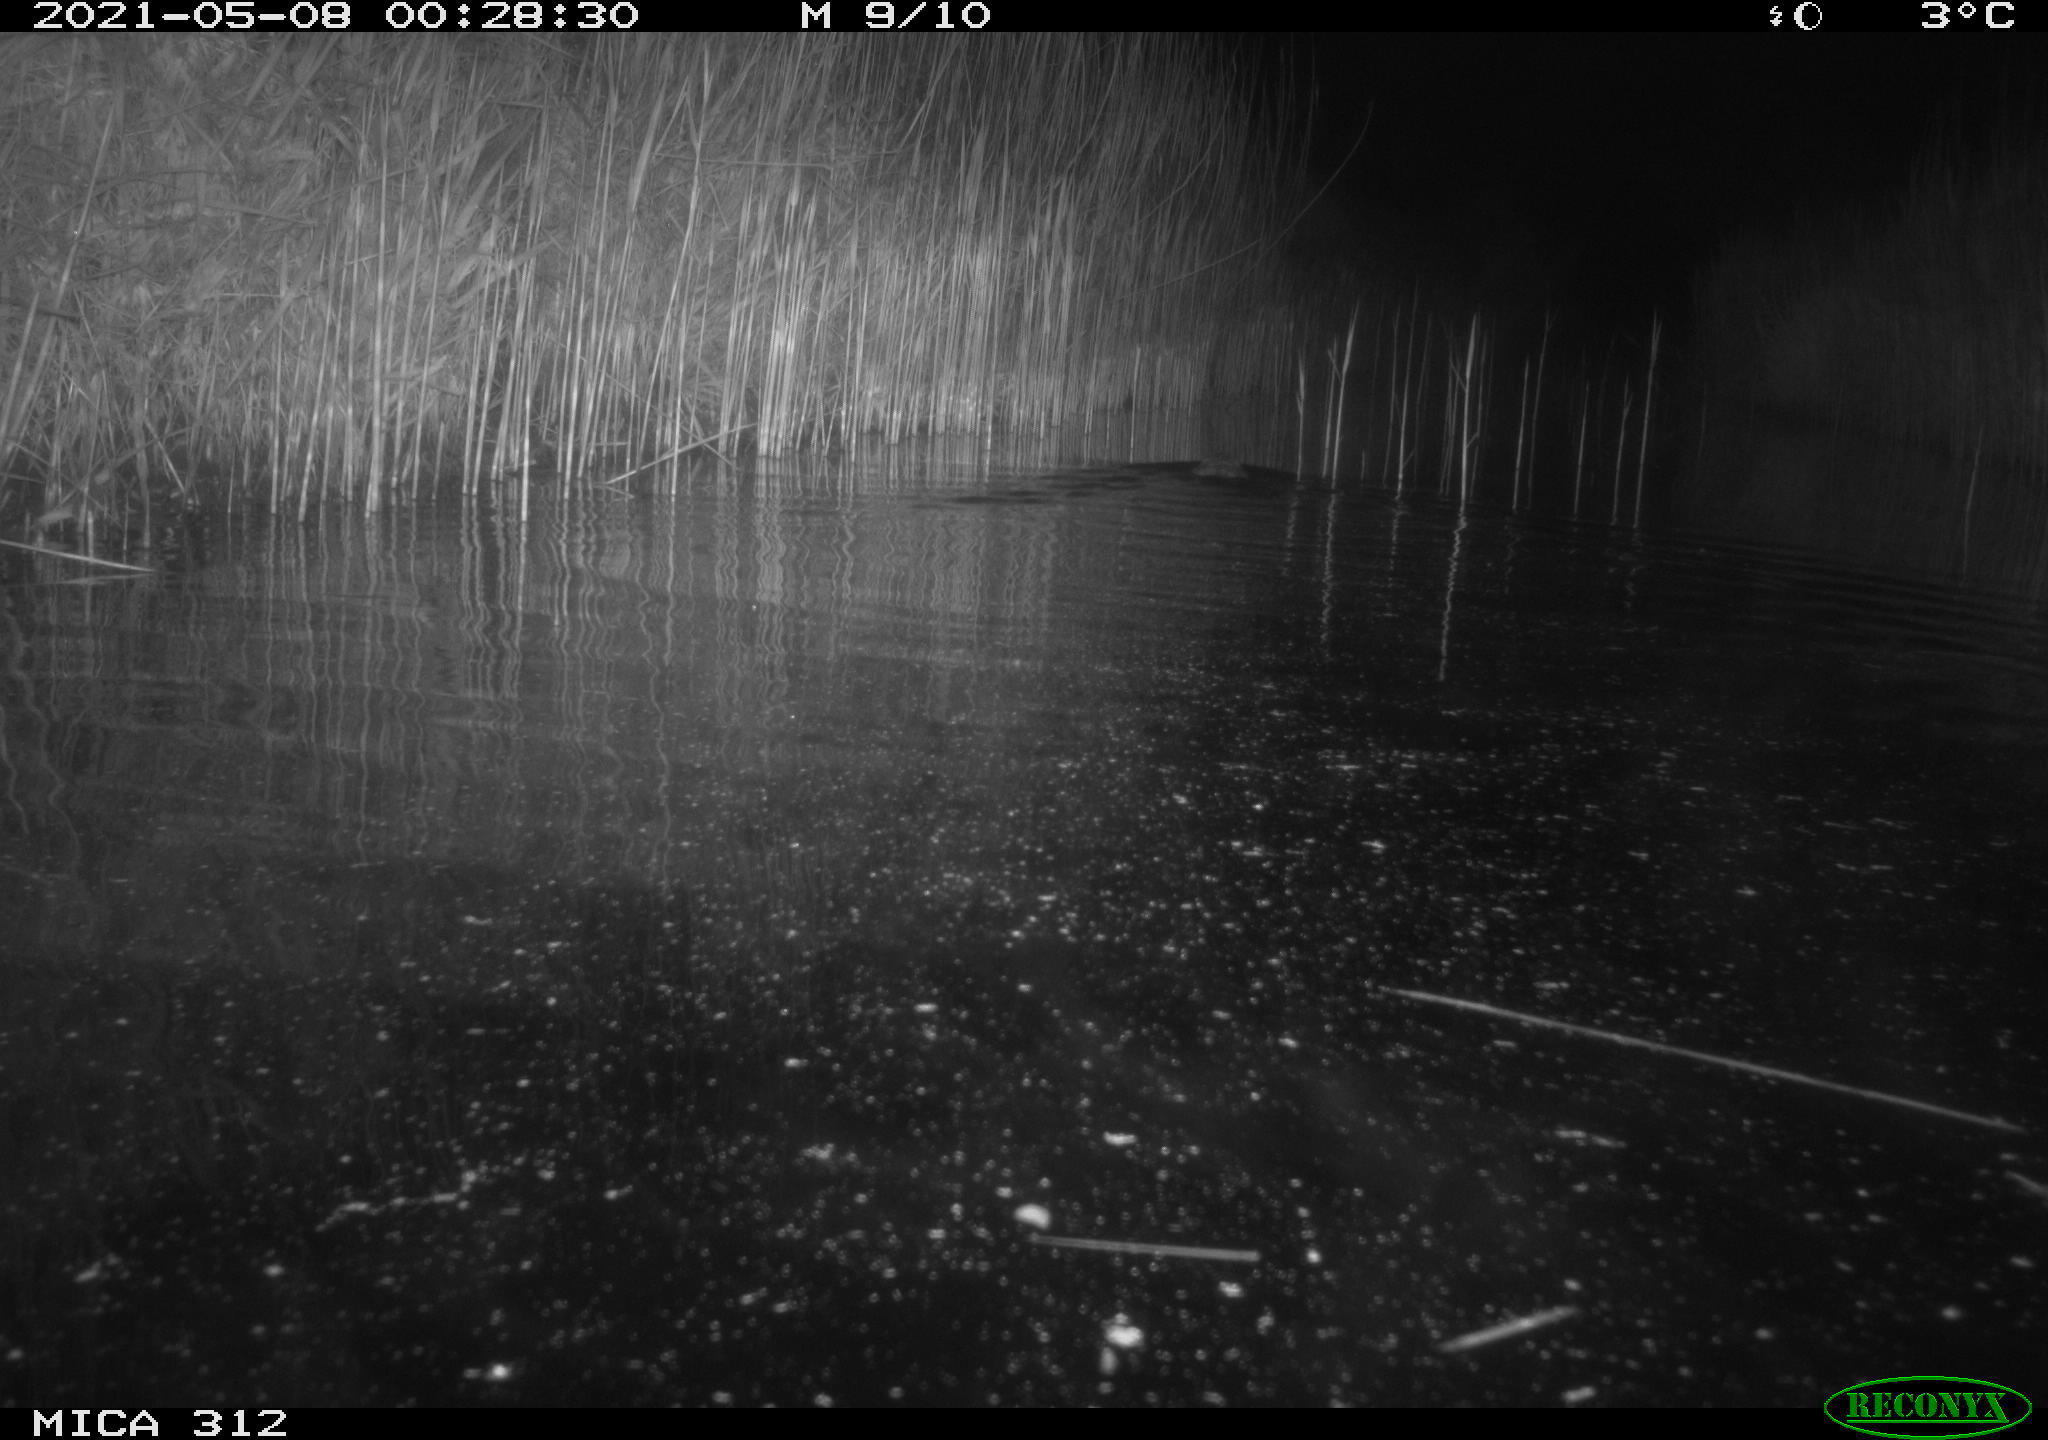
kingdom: Animalia
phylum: Chordata
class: Mammalia
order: Rodentia
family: Cricetidae
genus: Ondatra
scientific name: Ondatra zibethicus
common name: Muskrat
